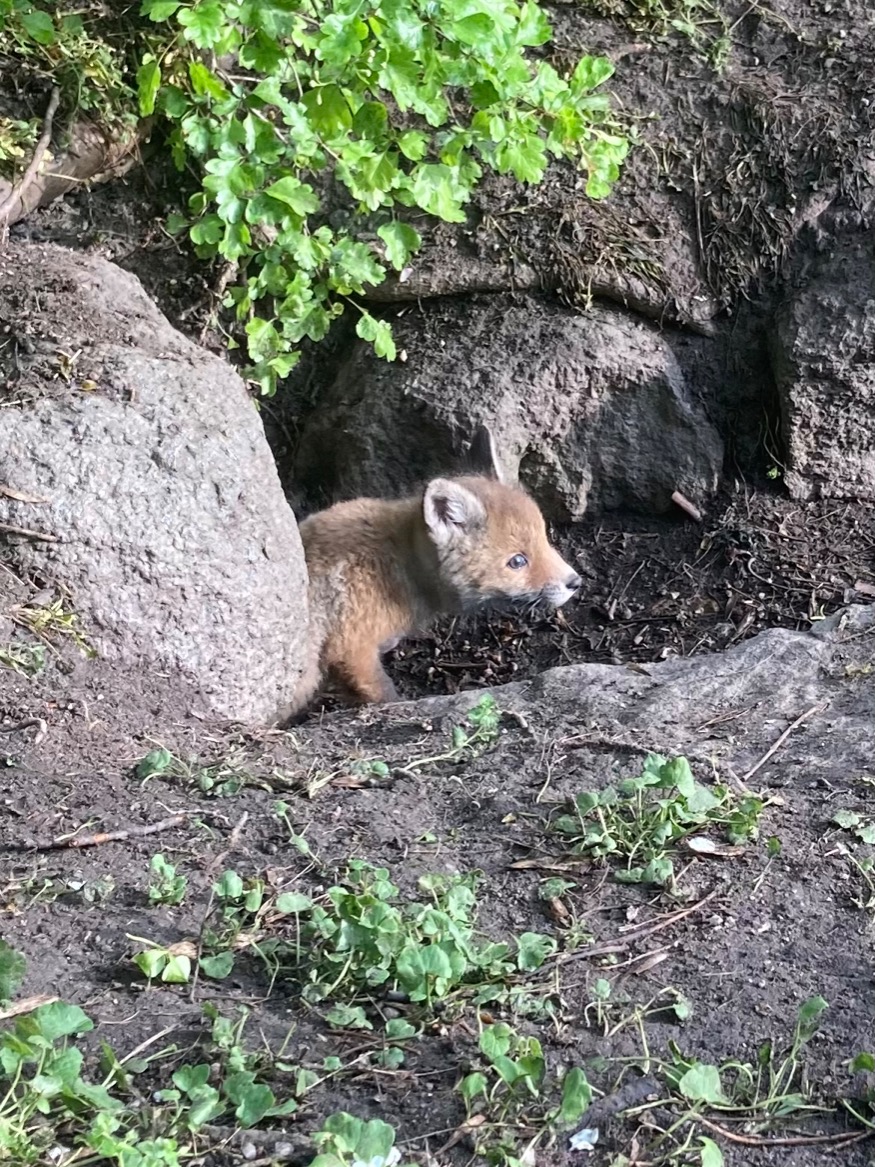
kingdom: Animalia
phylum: Chordata
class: Mammalia
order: Carnivora
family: Canidae
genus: Vulpes
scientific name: Vulpes vulpes
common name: Ræv
